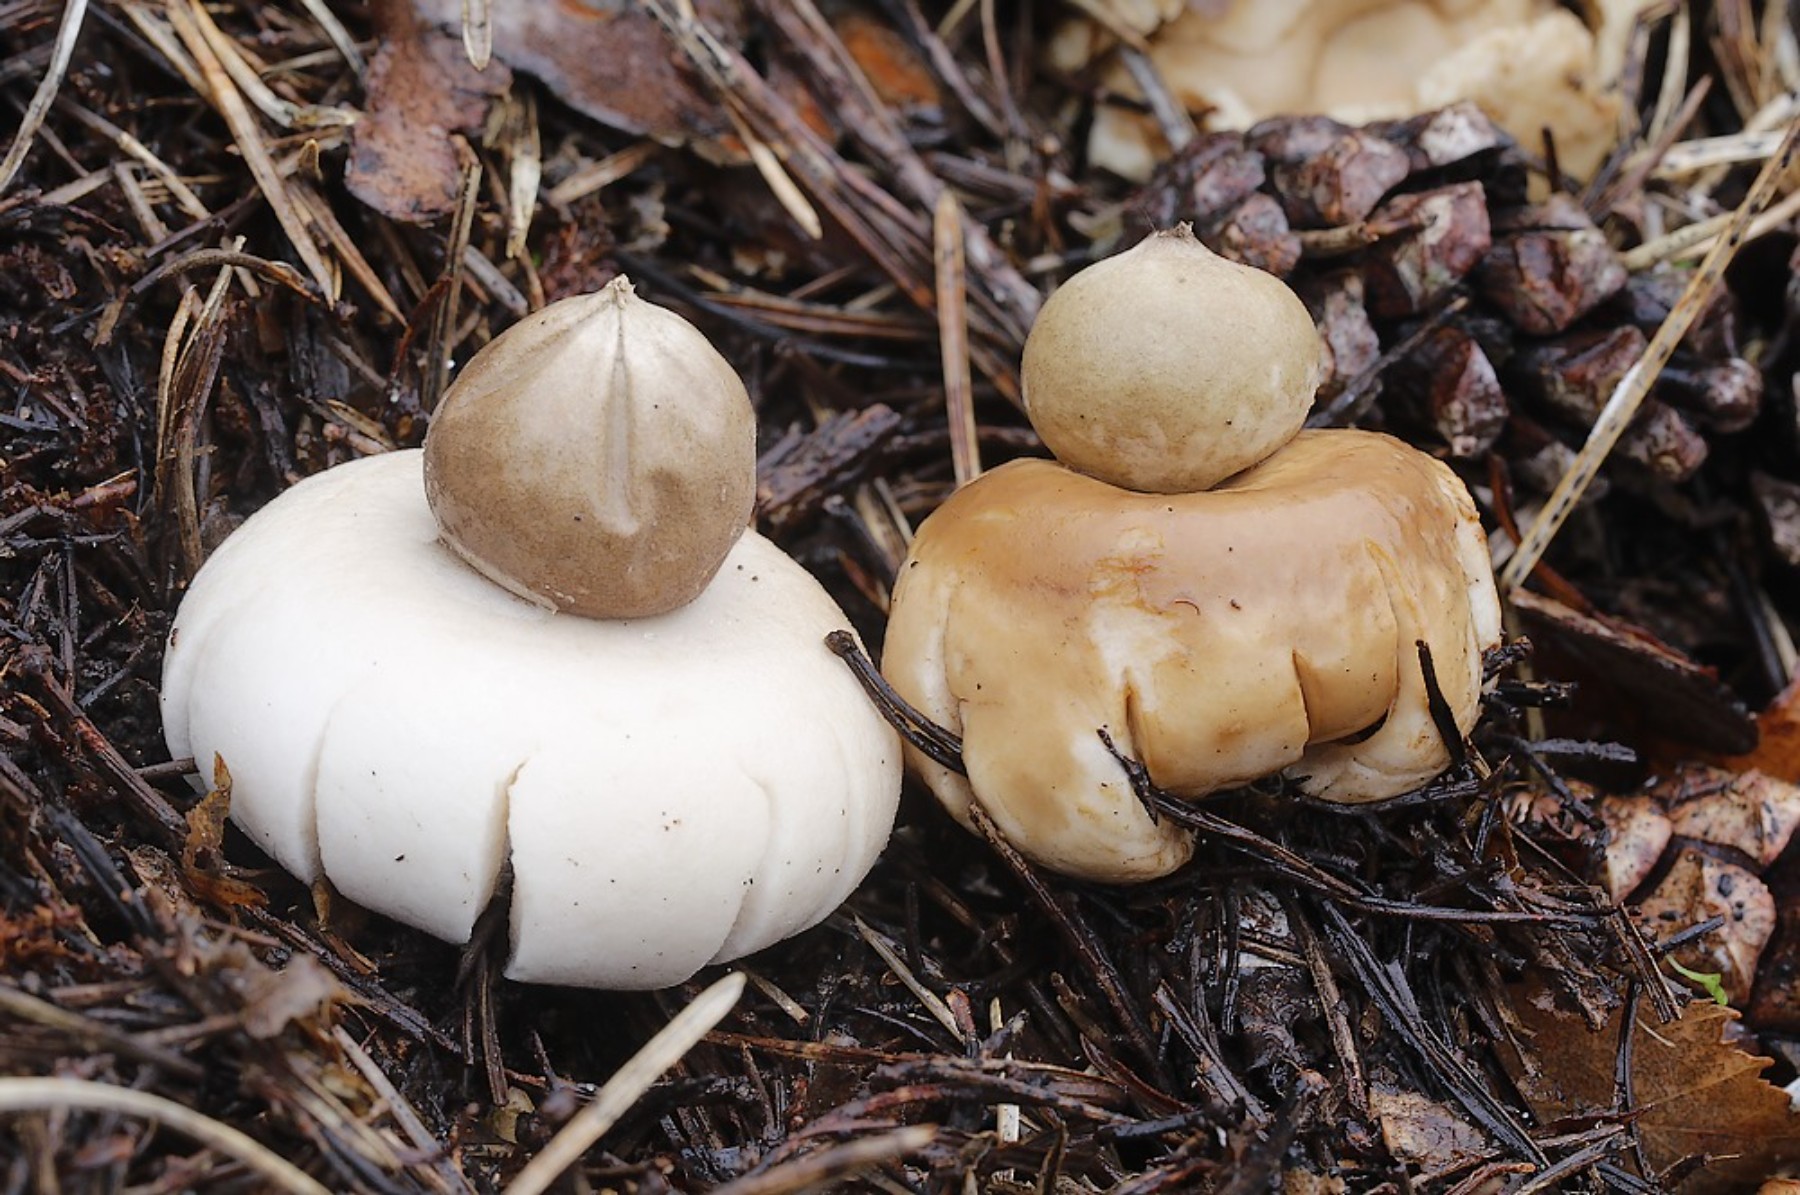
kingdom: Fungi
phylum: Basidiomycota
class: Agaricomycetes
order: Geastrales
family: Geastraceae
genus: Geastrum
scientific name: Geastrum fimbriatum
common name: frynset stjernebold
